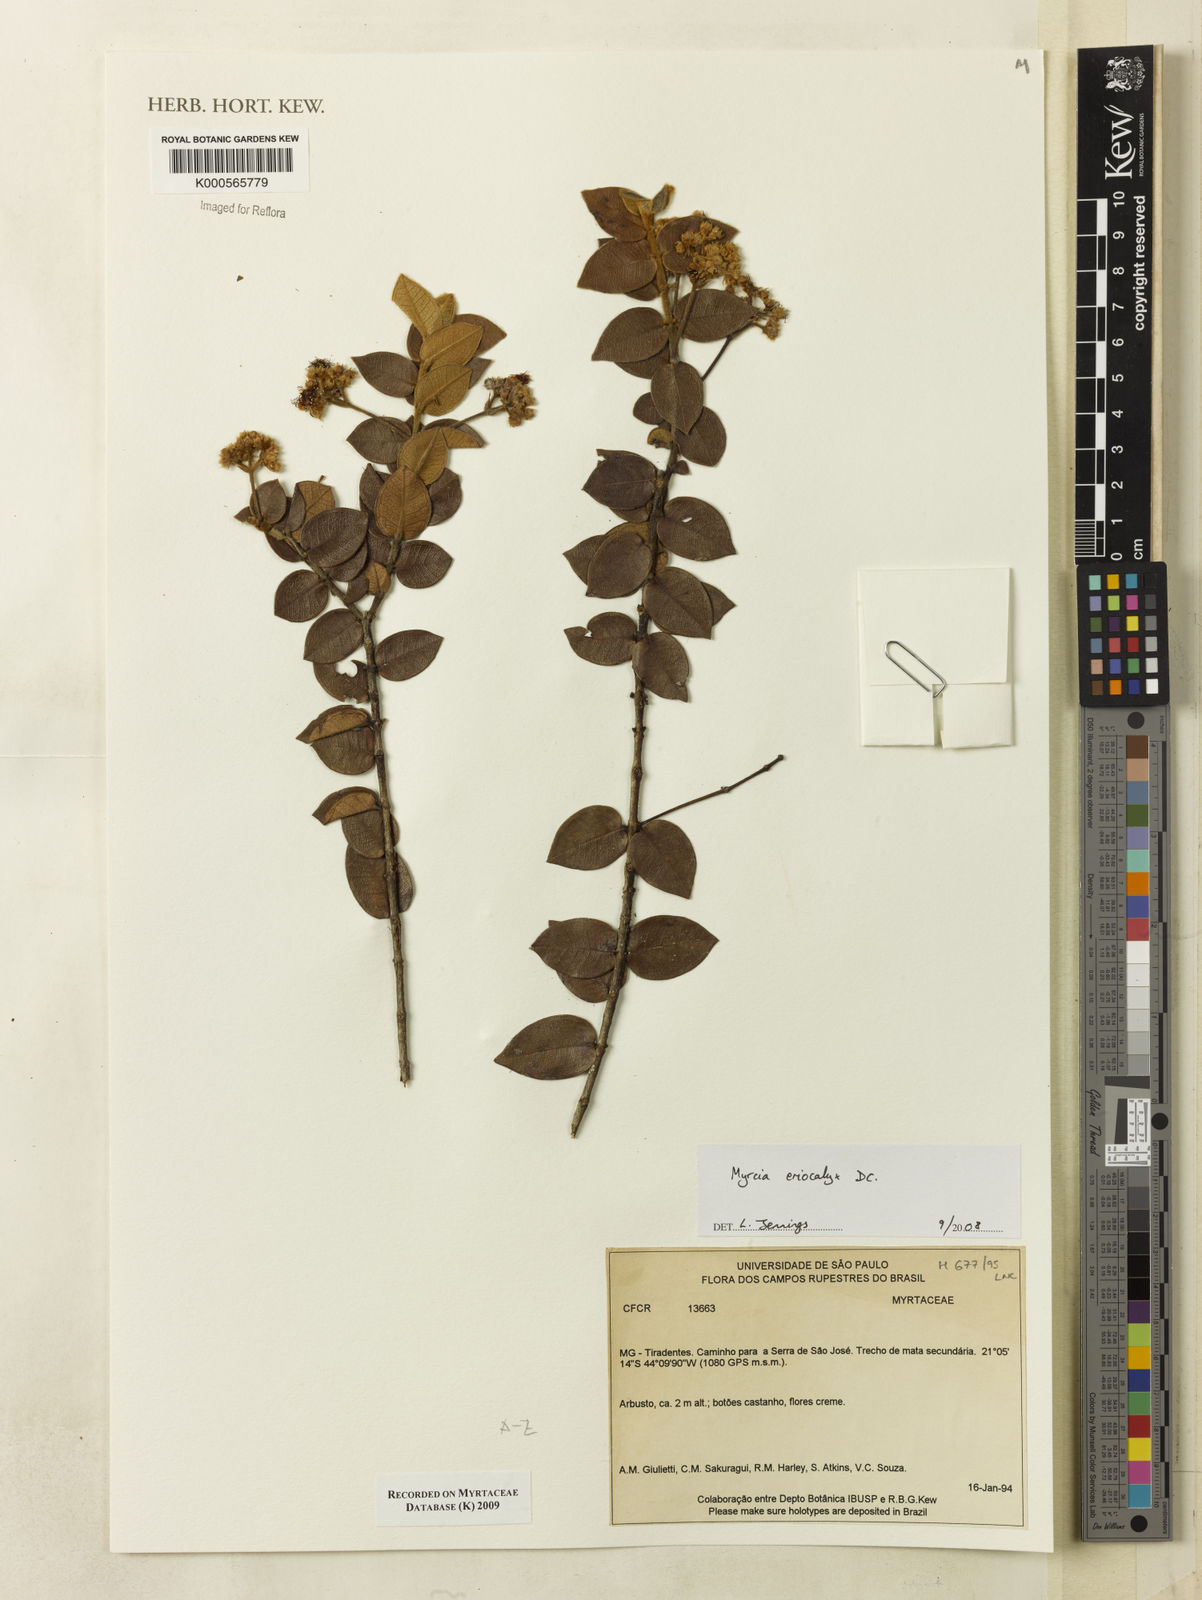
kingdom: Plantae
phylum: Tracheophyta
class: Magnoliopsida
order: Myrtales
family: Myrtaceae
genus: Myrcia
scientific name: Myrcia eriocalyx
